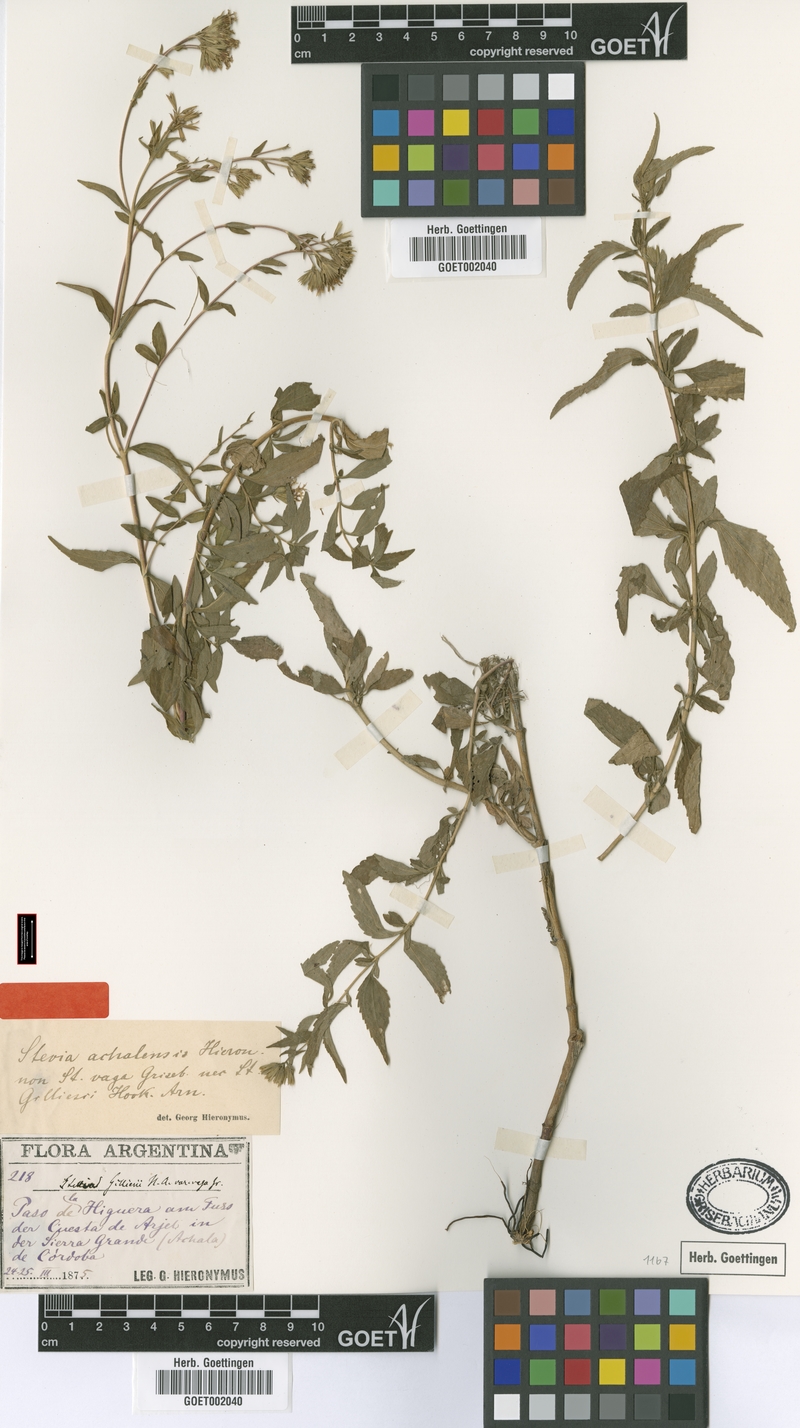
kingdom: Plantae
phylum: Tracheophyta
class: Magnoliopsida
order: Asterales
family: Asteraceae
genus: Stevia
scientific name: Stevia achalensis
